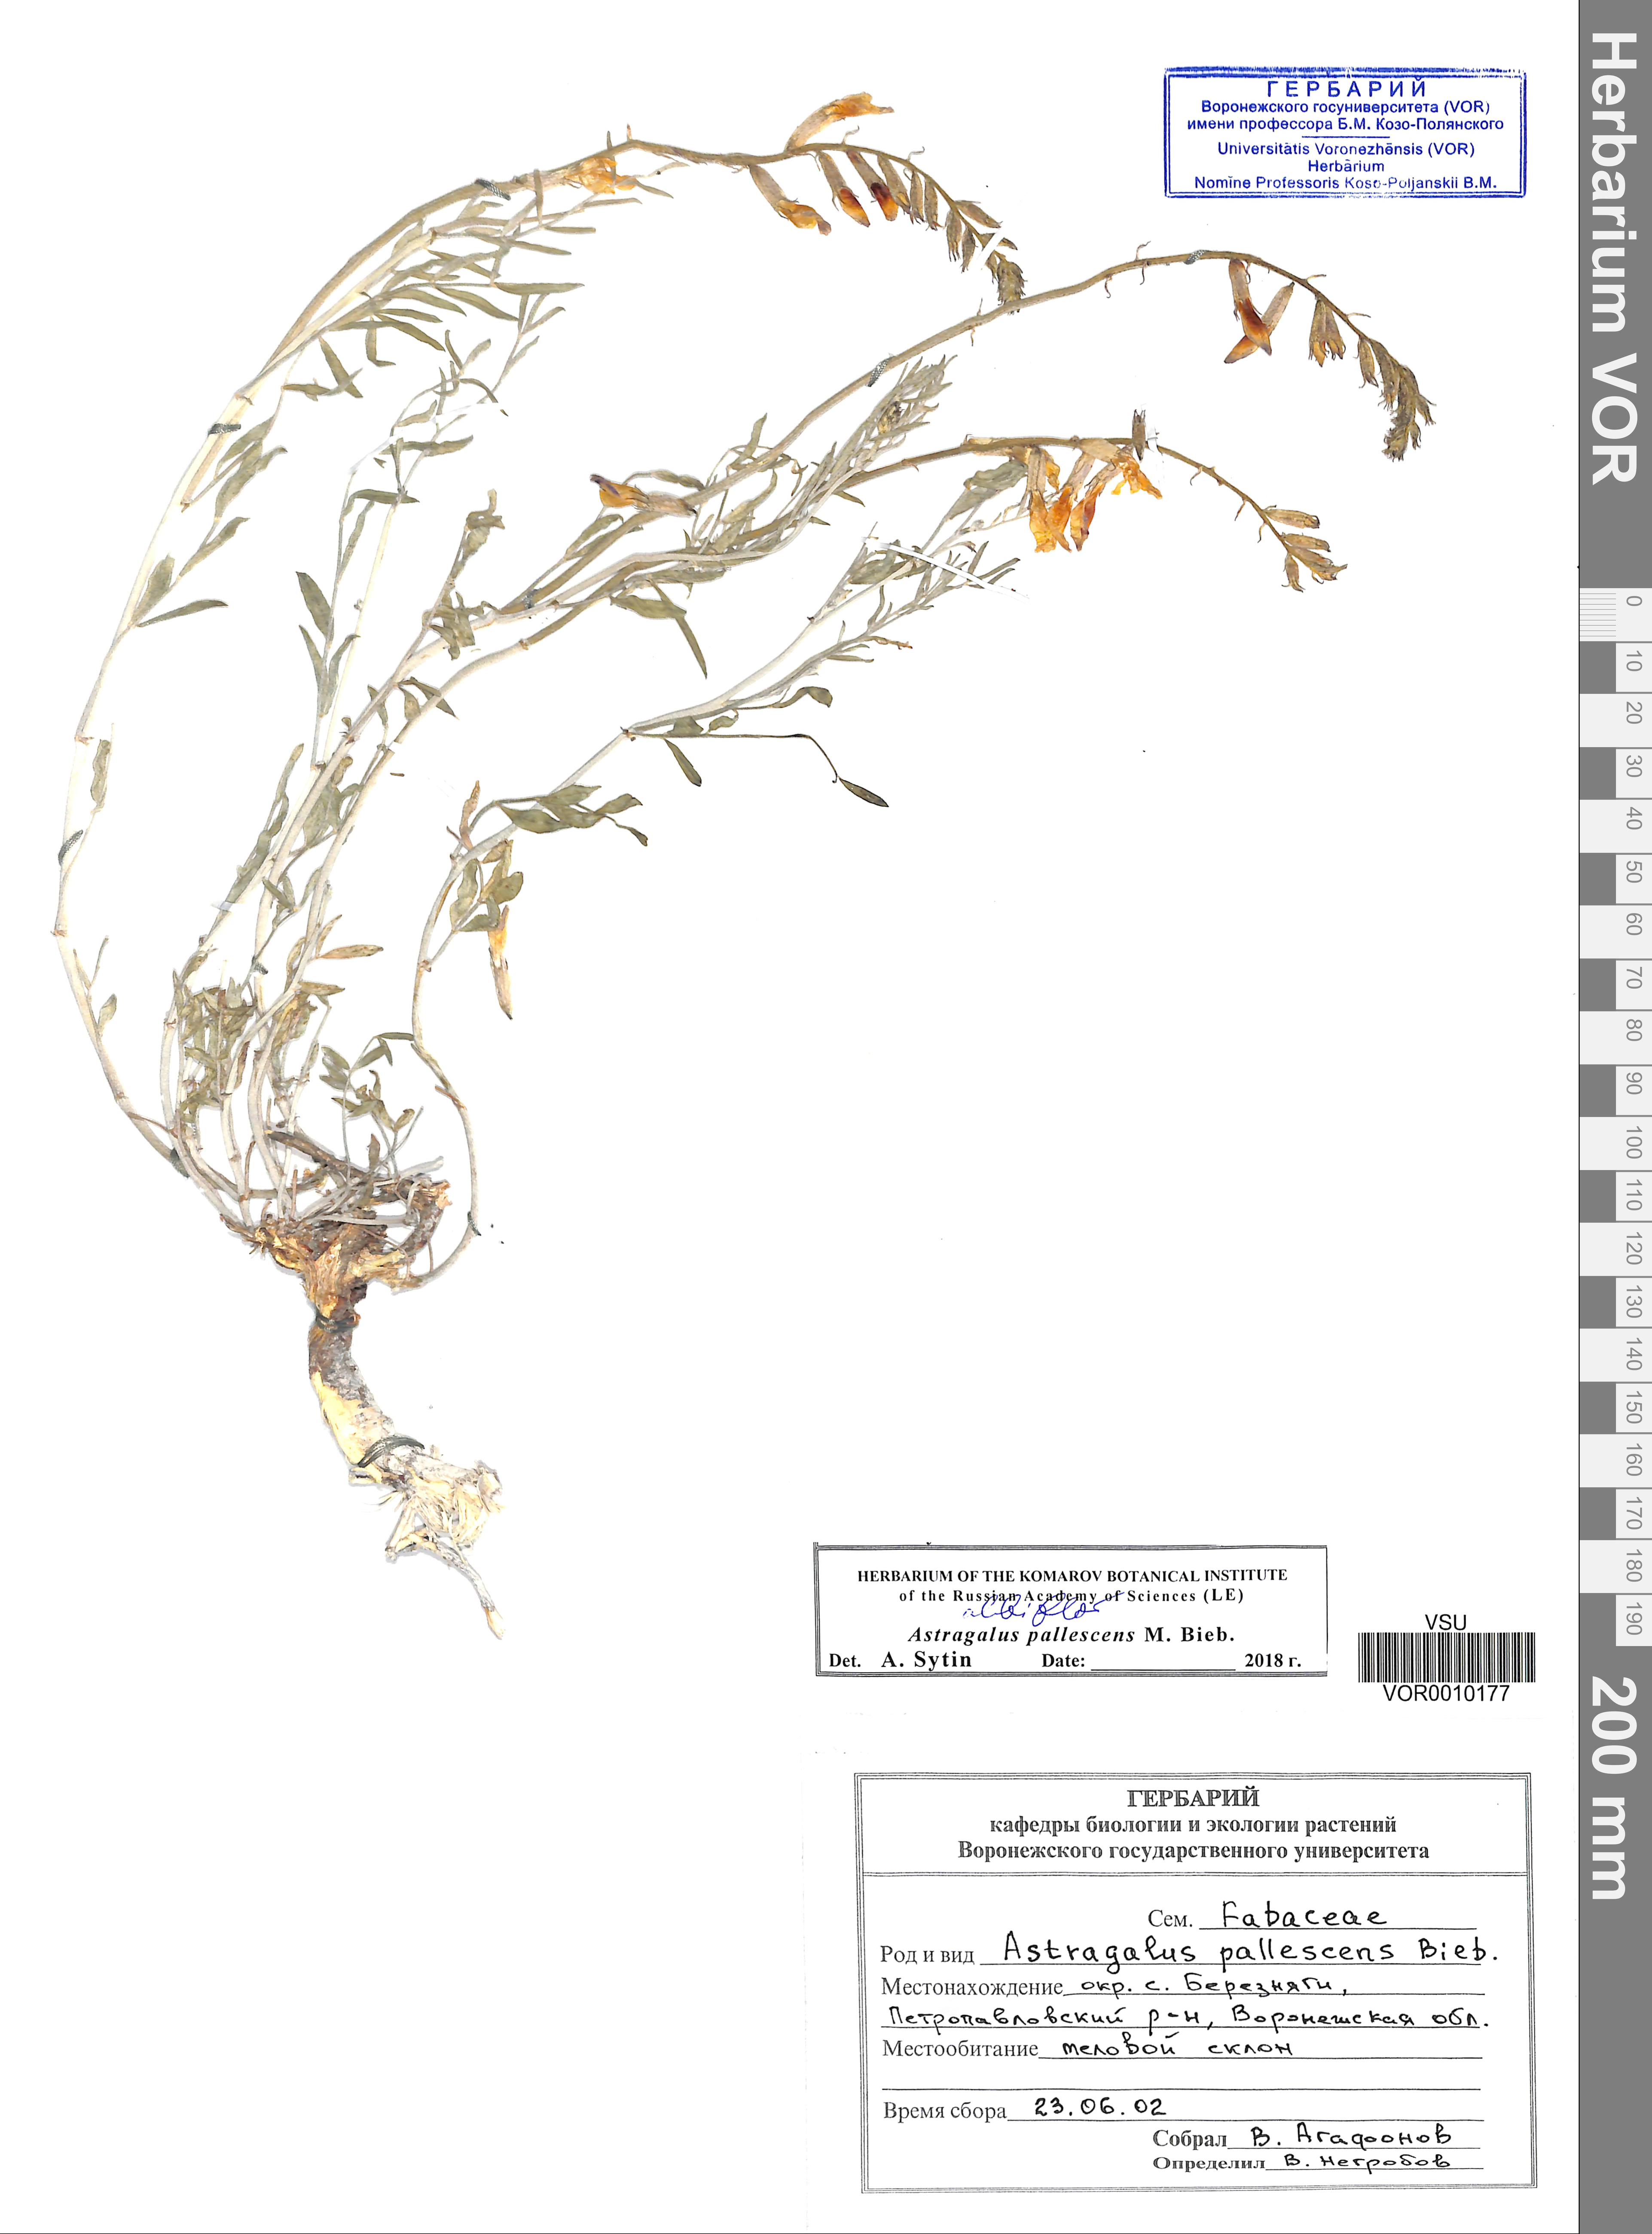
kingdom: Plantae
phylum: Tracheophyta
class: Magnoliopsida
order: Fabales
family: Fabaceae
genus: Astragalus
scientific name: Astragalus pallescens
